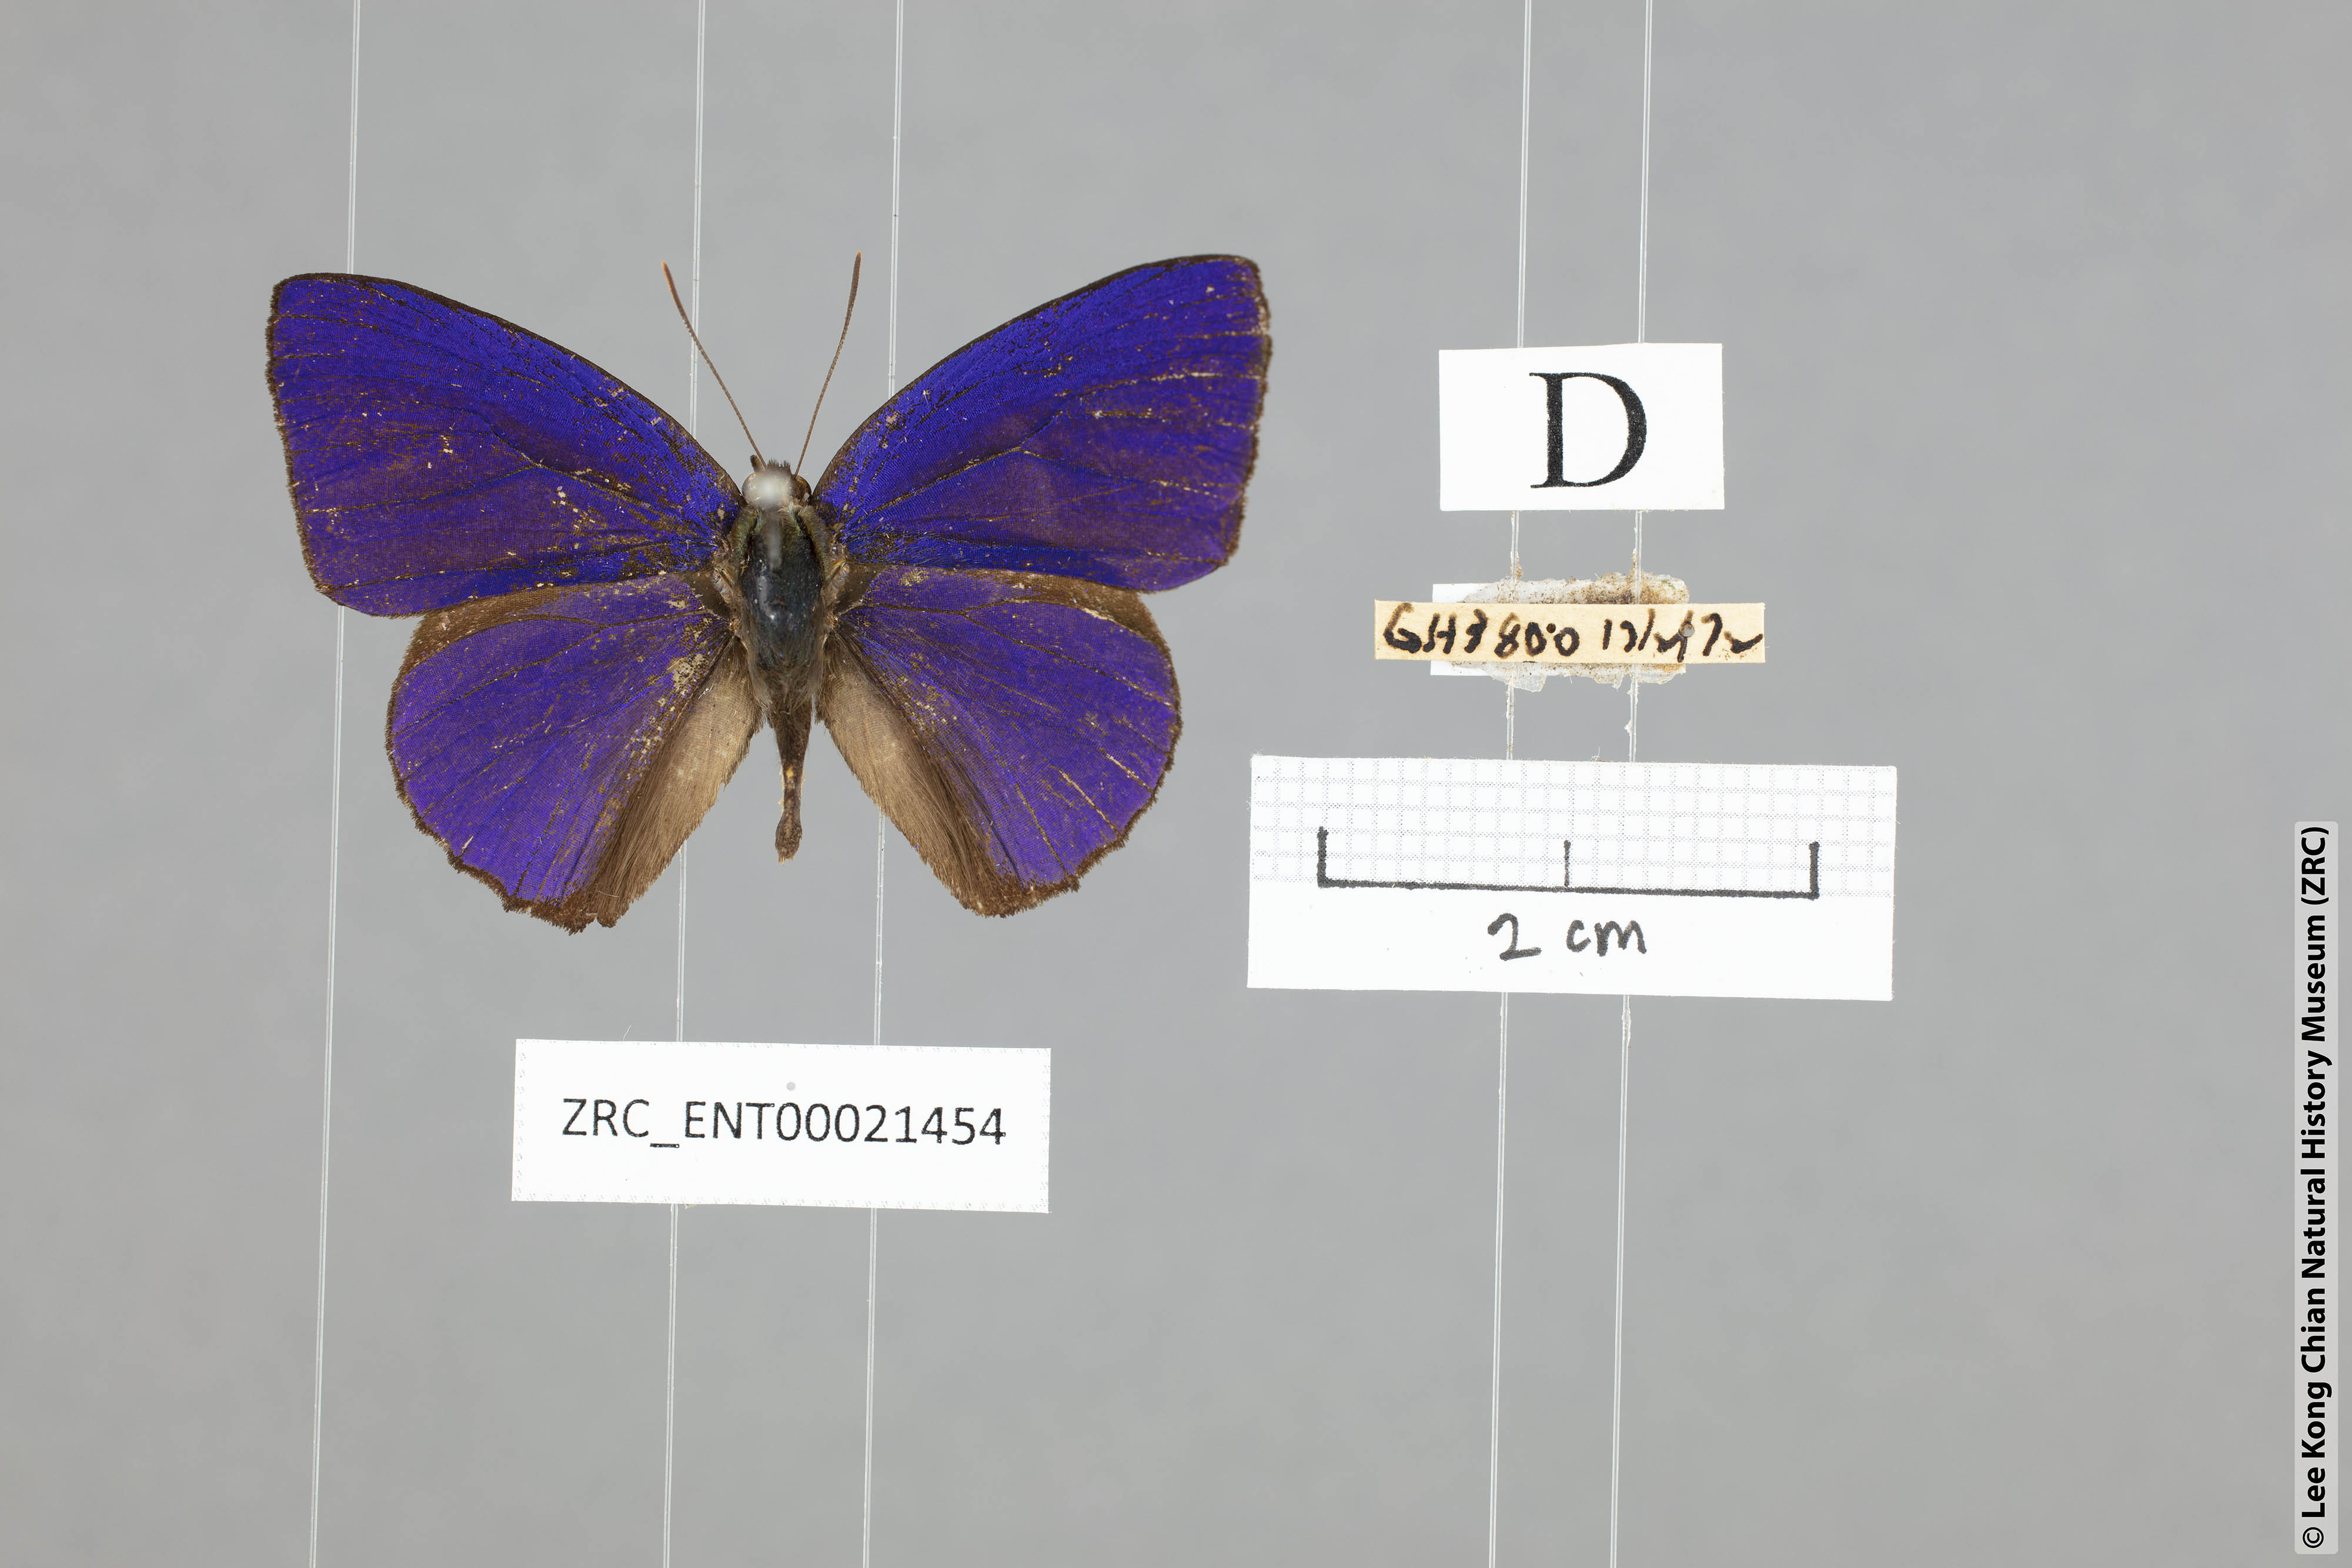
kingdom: Animalia
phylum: Arthropoda
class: Insecta
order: Lepidoptera
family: Lycaenidae
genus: Flos
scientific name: Flos
